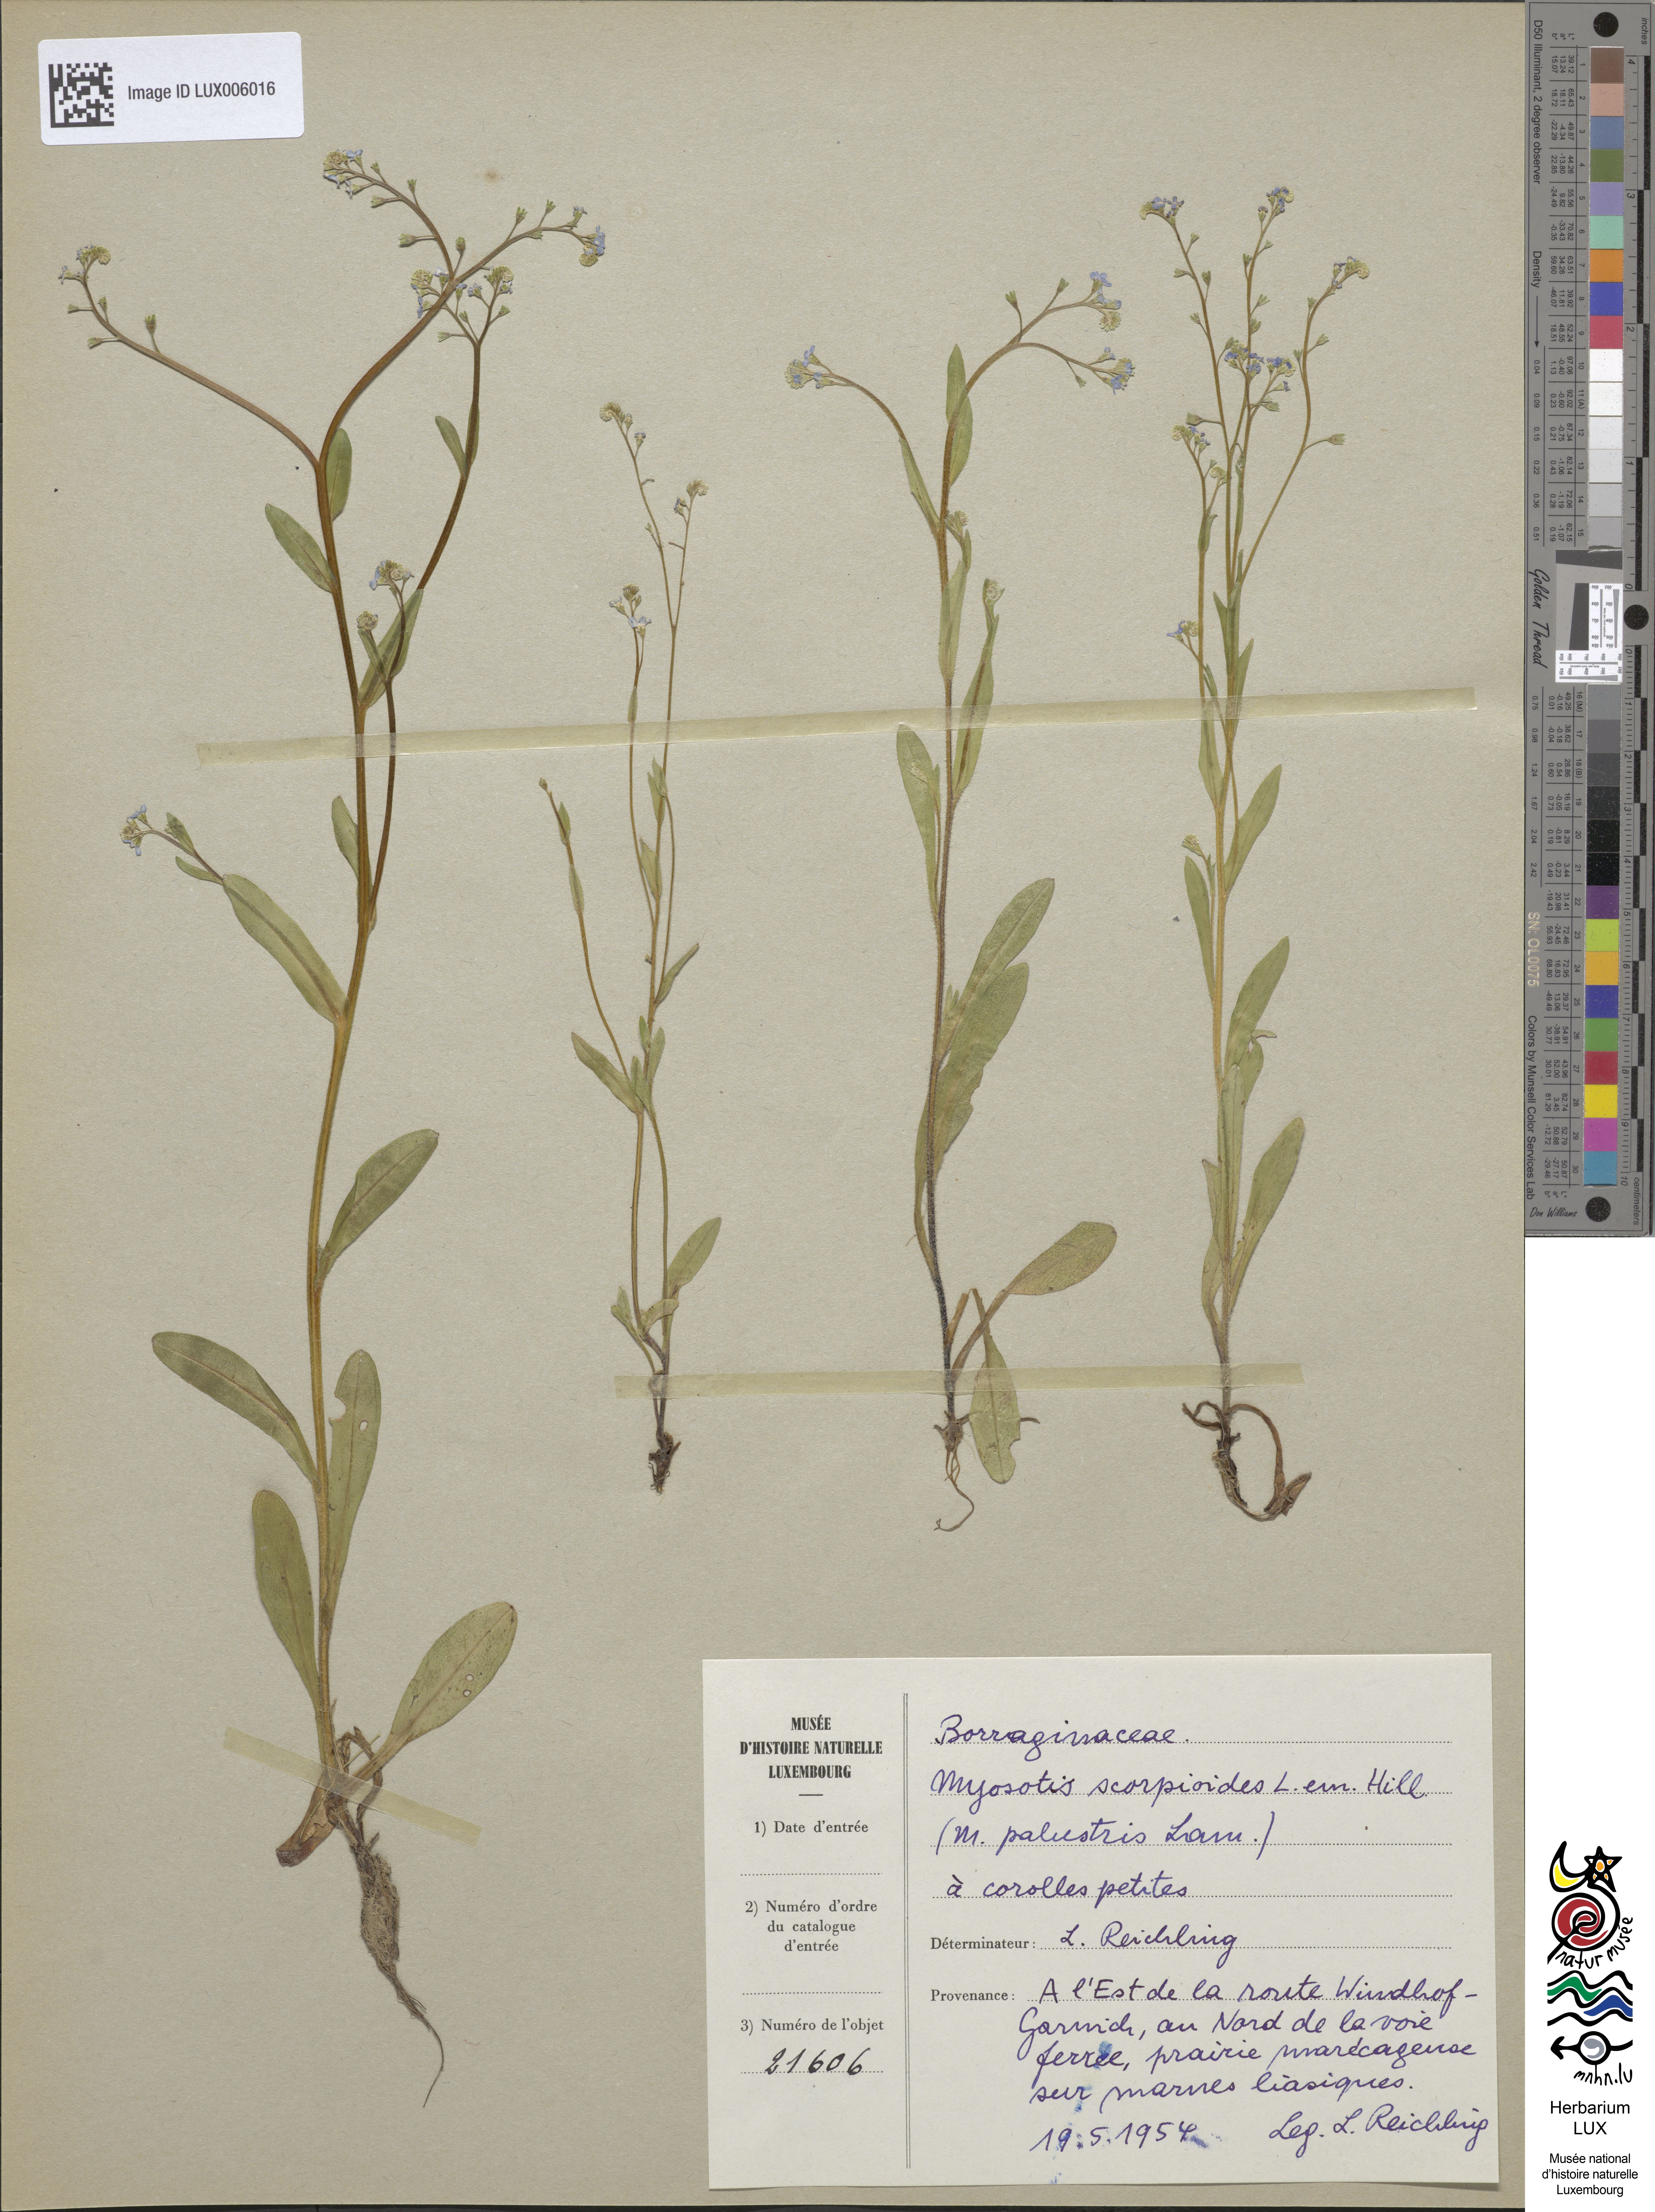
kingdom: Plantae
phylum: Tracheophyta
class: Magnoliopsida
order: Boraginales
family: Boraginaceae
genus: Myosotis
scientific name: Myosotis scorpioides
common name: Water forget-me-not
